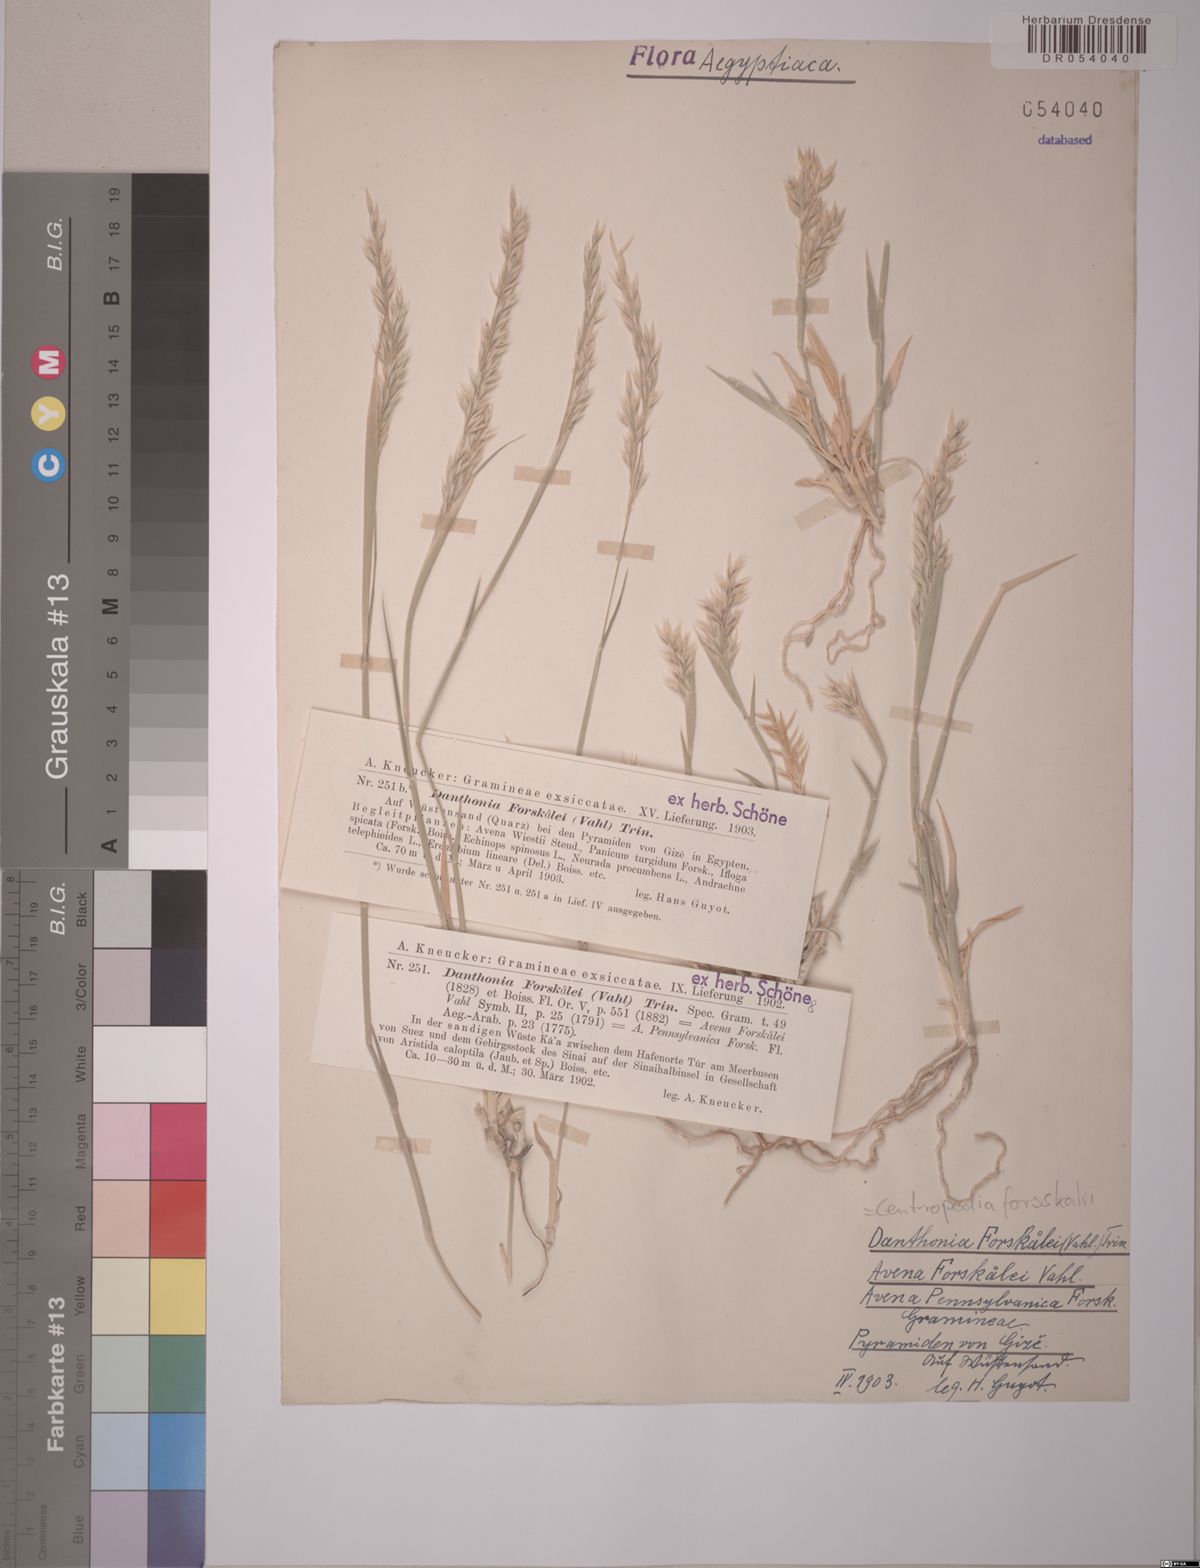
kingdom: Plantae
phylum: Tracheophyta
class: Liliopsida
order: Poales
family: Poaceae
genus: Centropodia
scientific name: Centropodia forsskalii
